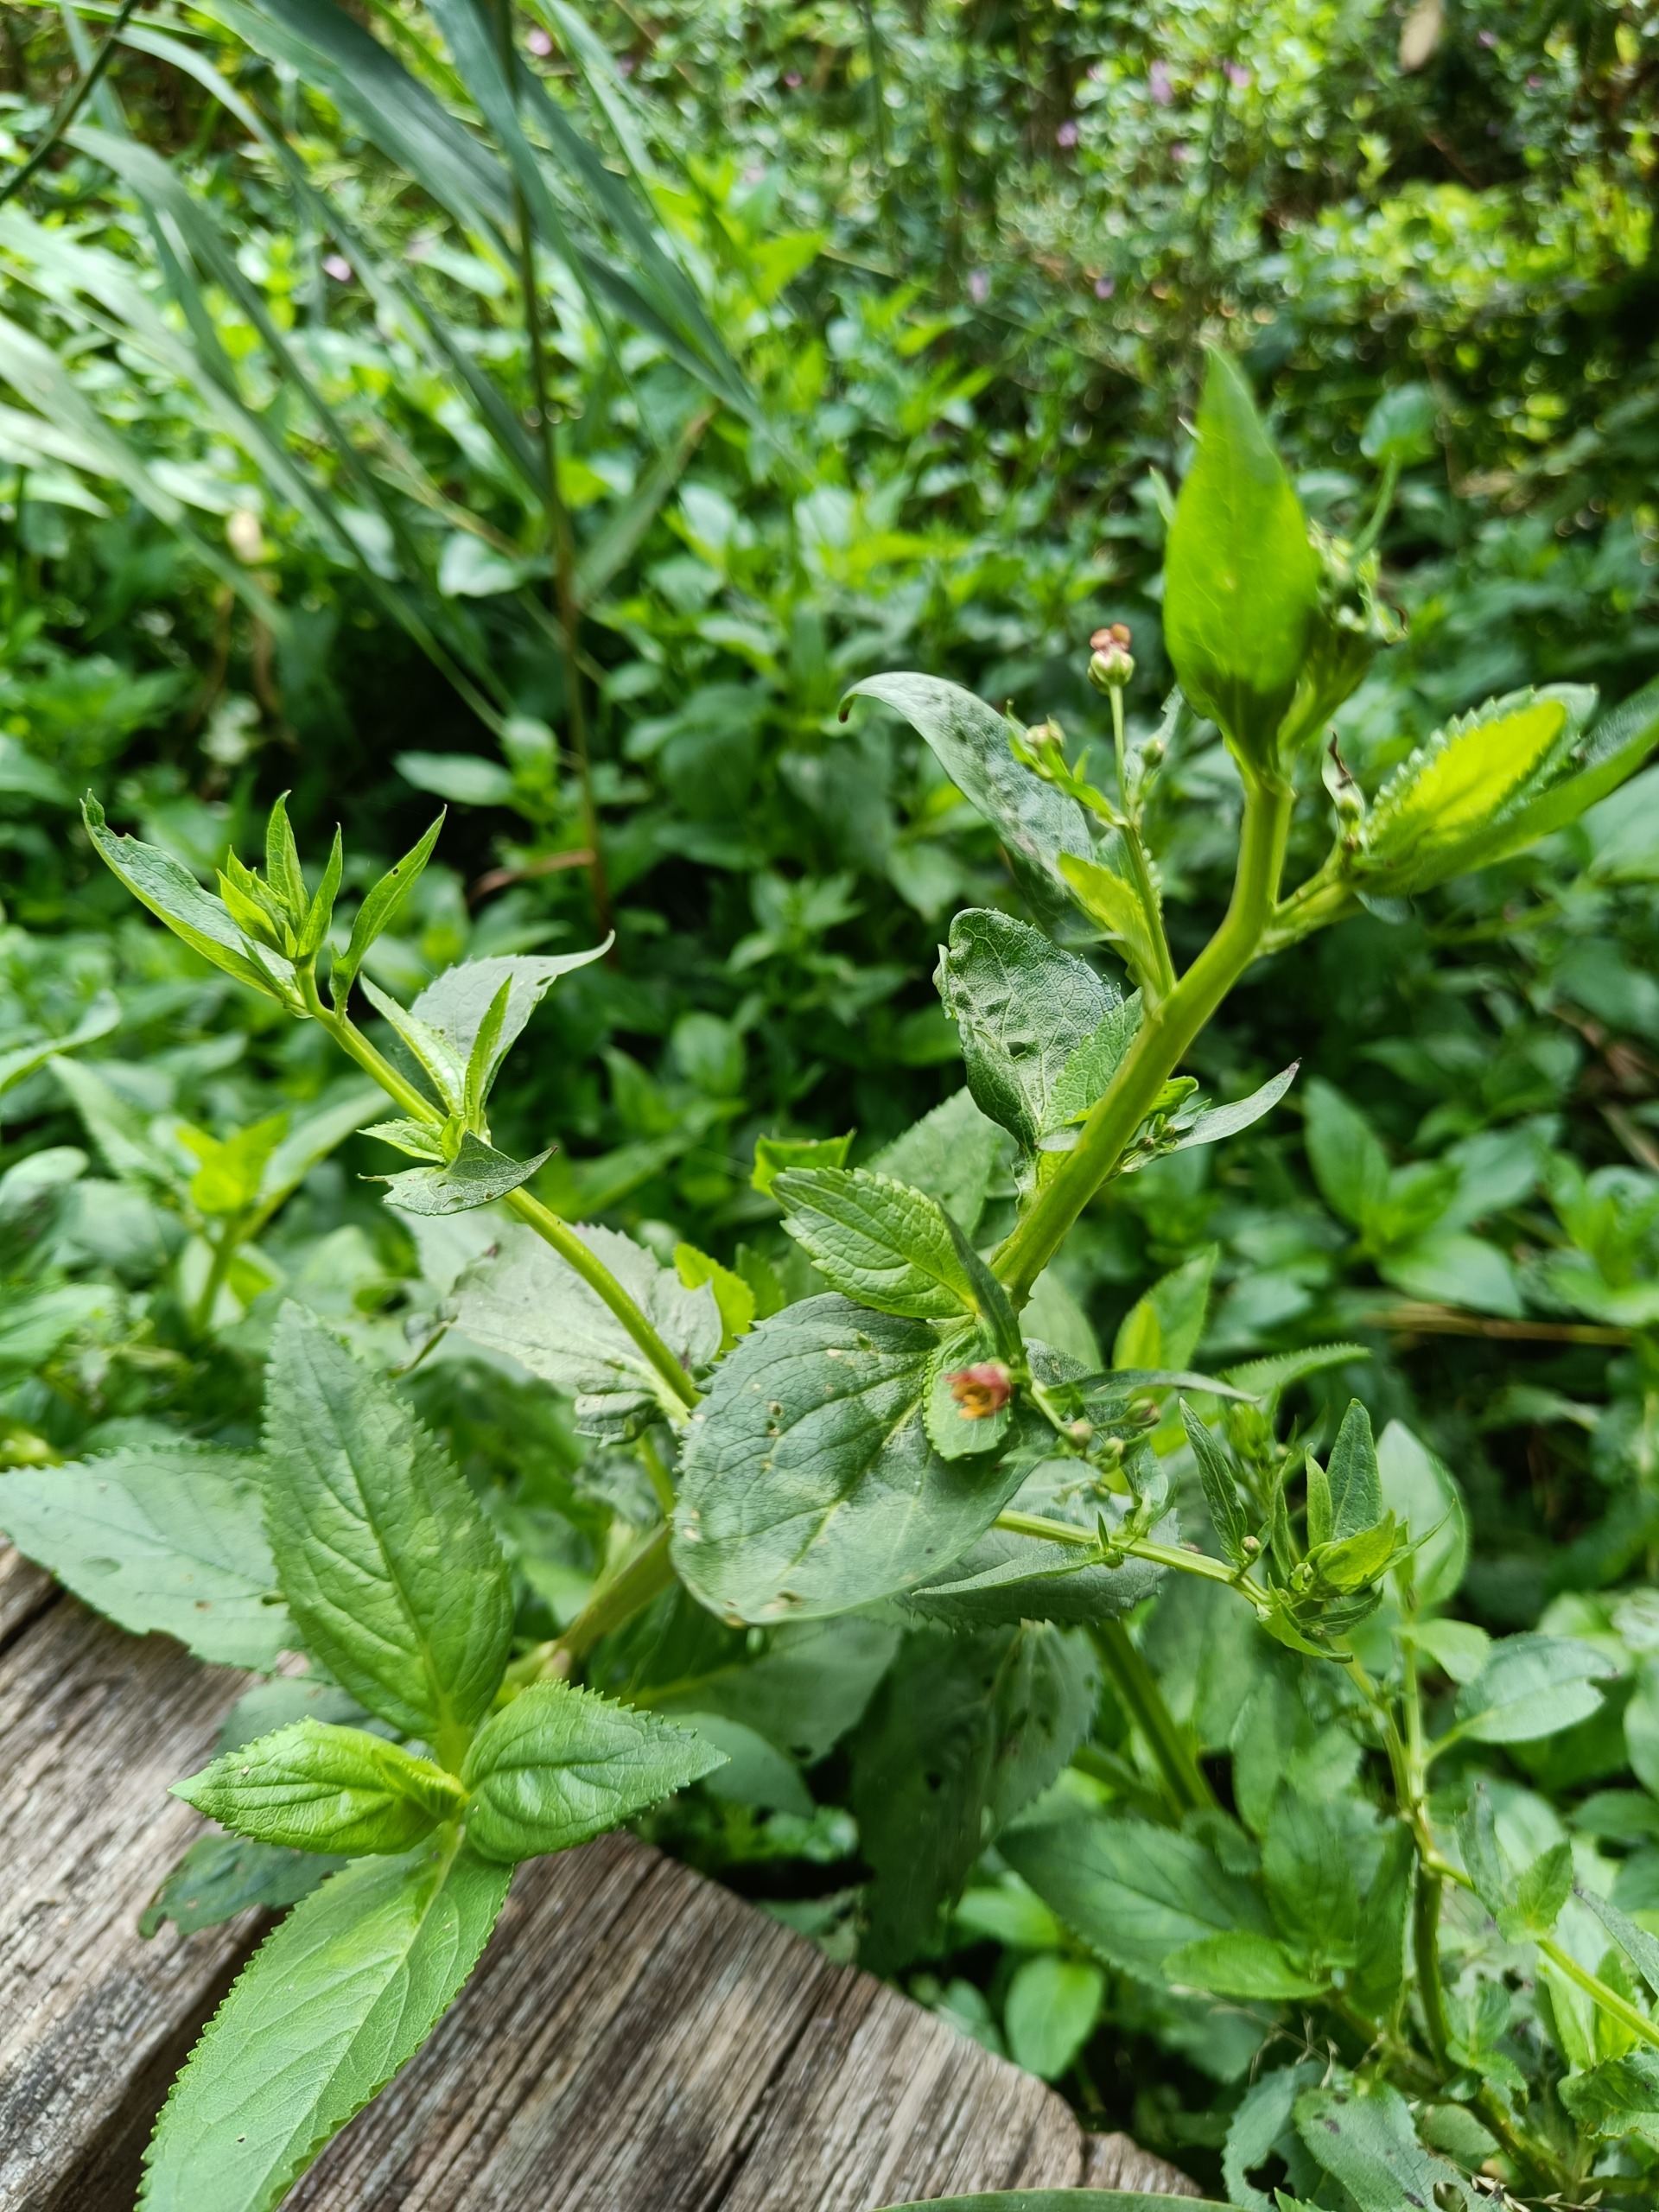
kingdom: Plantae
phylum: Tracheophyta
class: Magnoliopsida
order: Lamiales
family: Scrophulariaceae
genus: Scrophularia
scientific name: Scrophularia umbrosa
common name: Vand-brunrod
